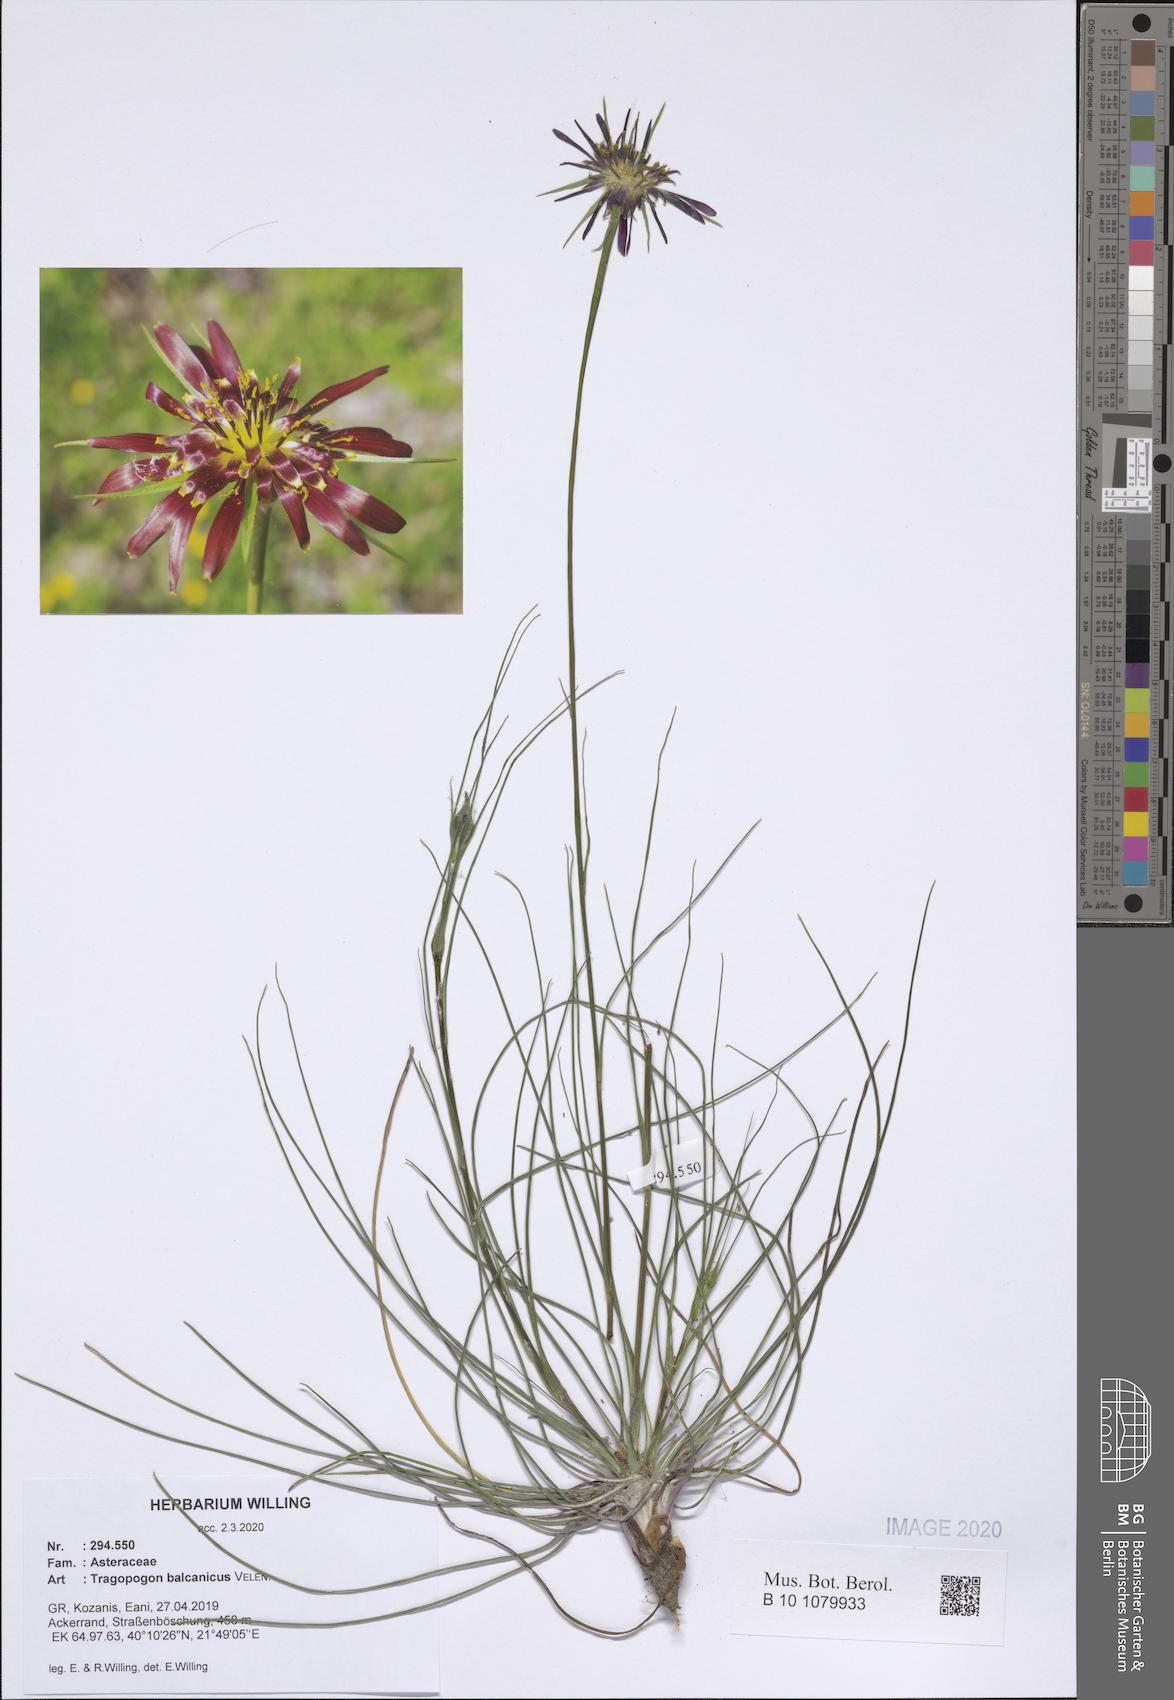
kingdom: Plantae
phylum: Tracheophyta
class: Magnoliopsida
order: Asterales
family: Asteraceae
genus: Tragopogon
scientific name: Tragopogon balcanicus
